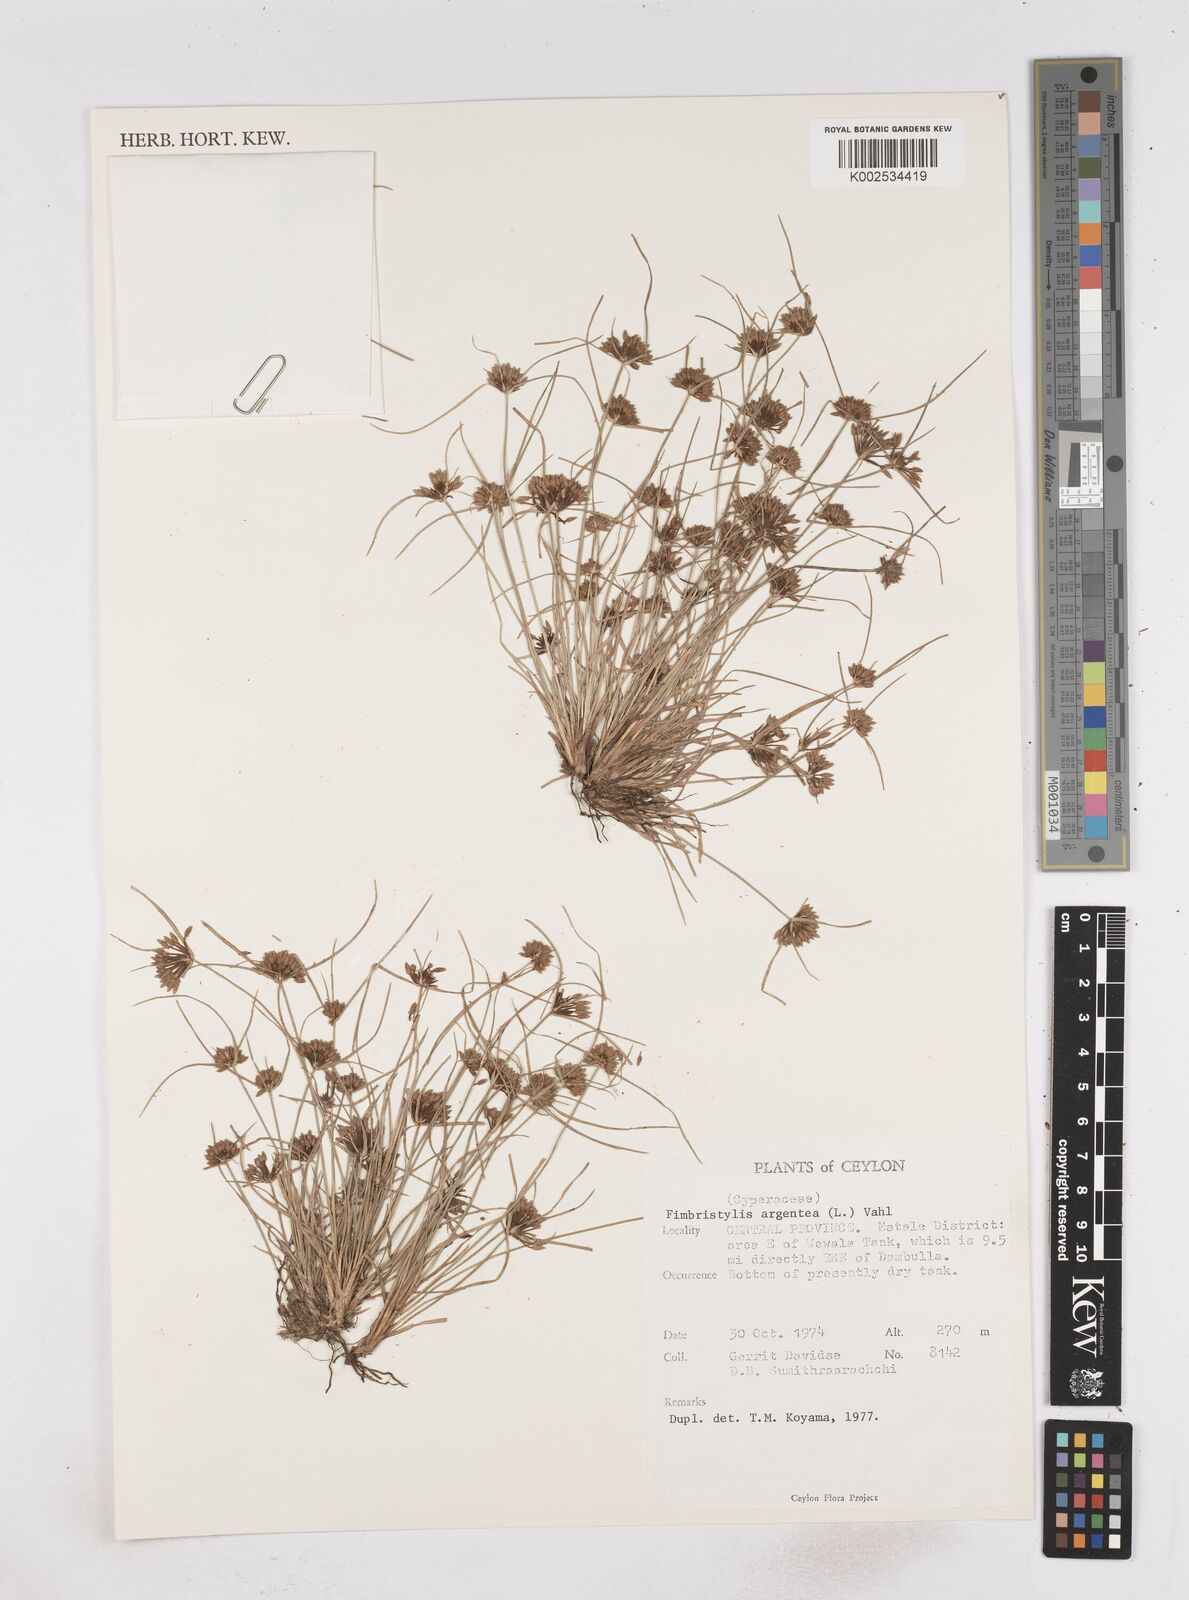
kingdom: Plantae
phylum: Tracheophyta
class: Liliopsida
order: Poales
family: Cyperaceae
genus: Fimbristylis
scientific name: Fimbristylis argentea
